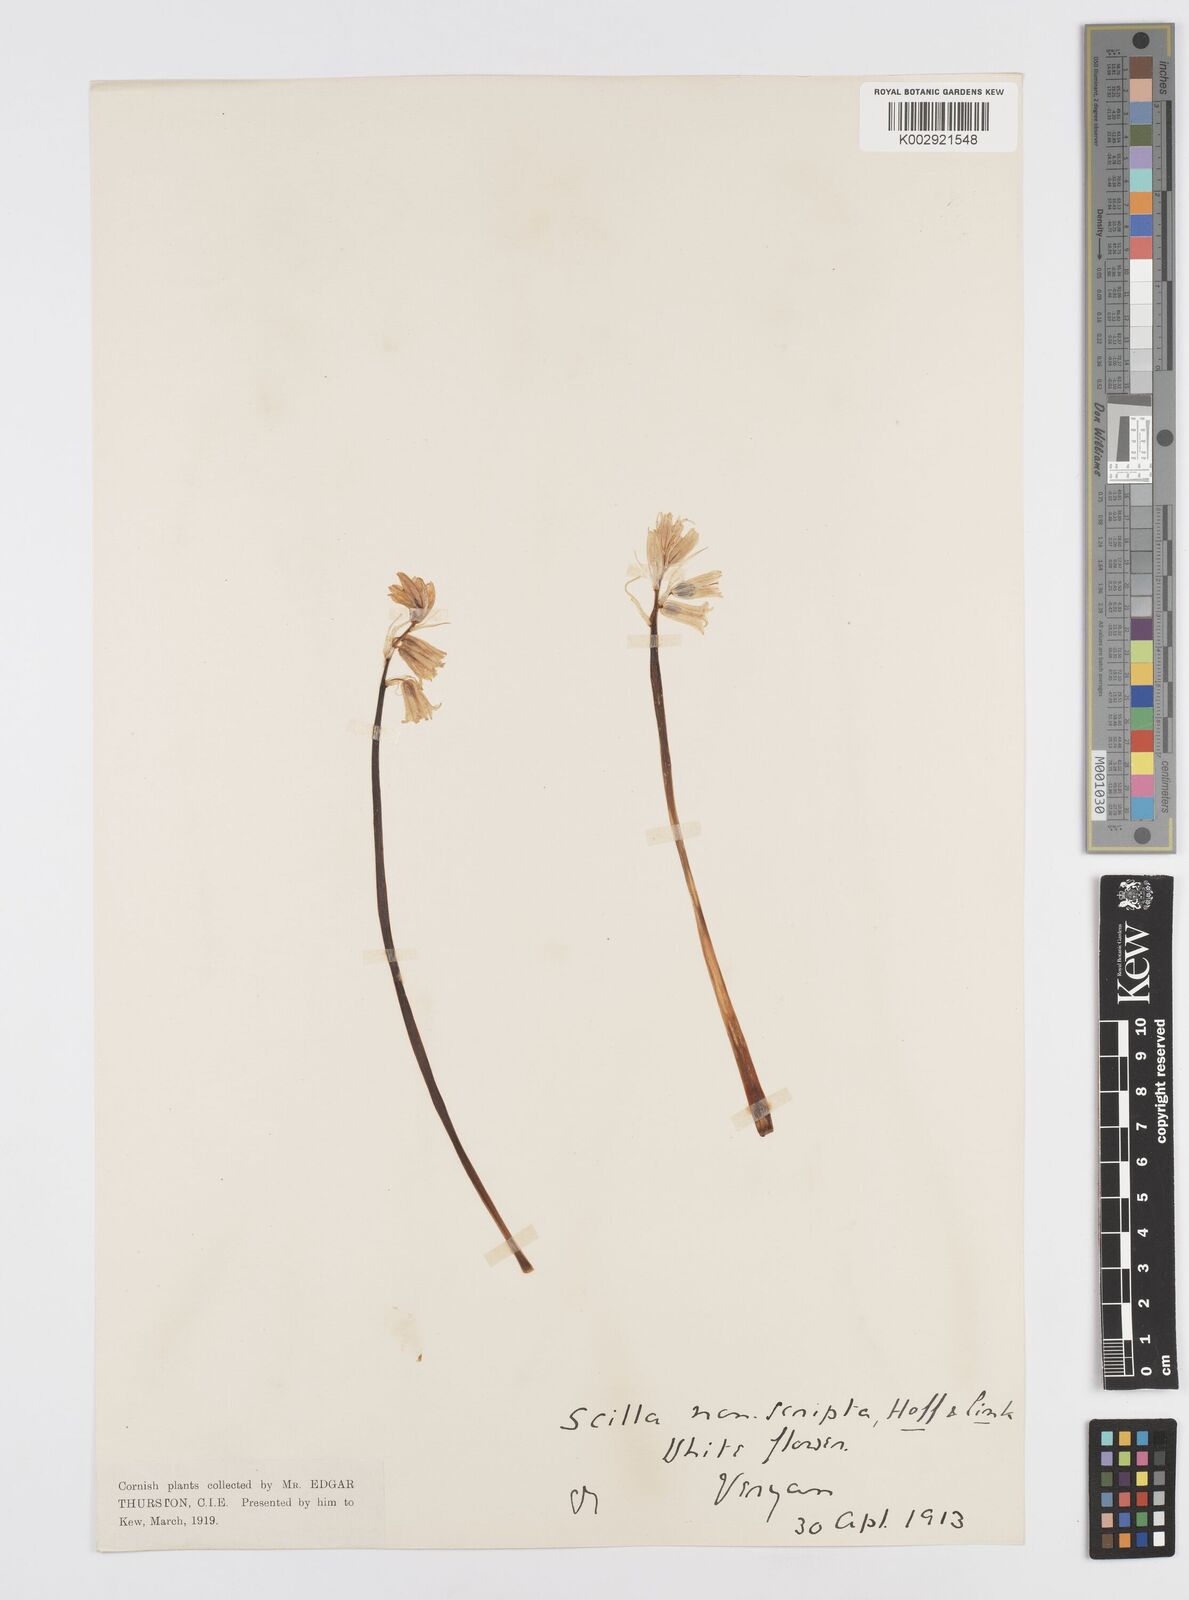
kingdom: Plantae
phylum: Tracheophyta
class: Liliopsida
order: Asparagales
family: Asparagaceae
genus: Hyacinthoides
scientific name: Hyacinthoides non-scripta
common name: Bluebell
